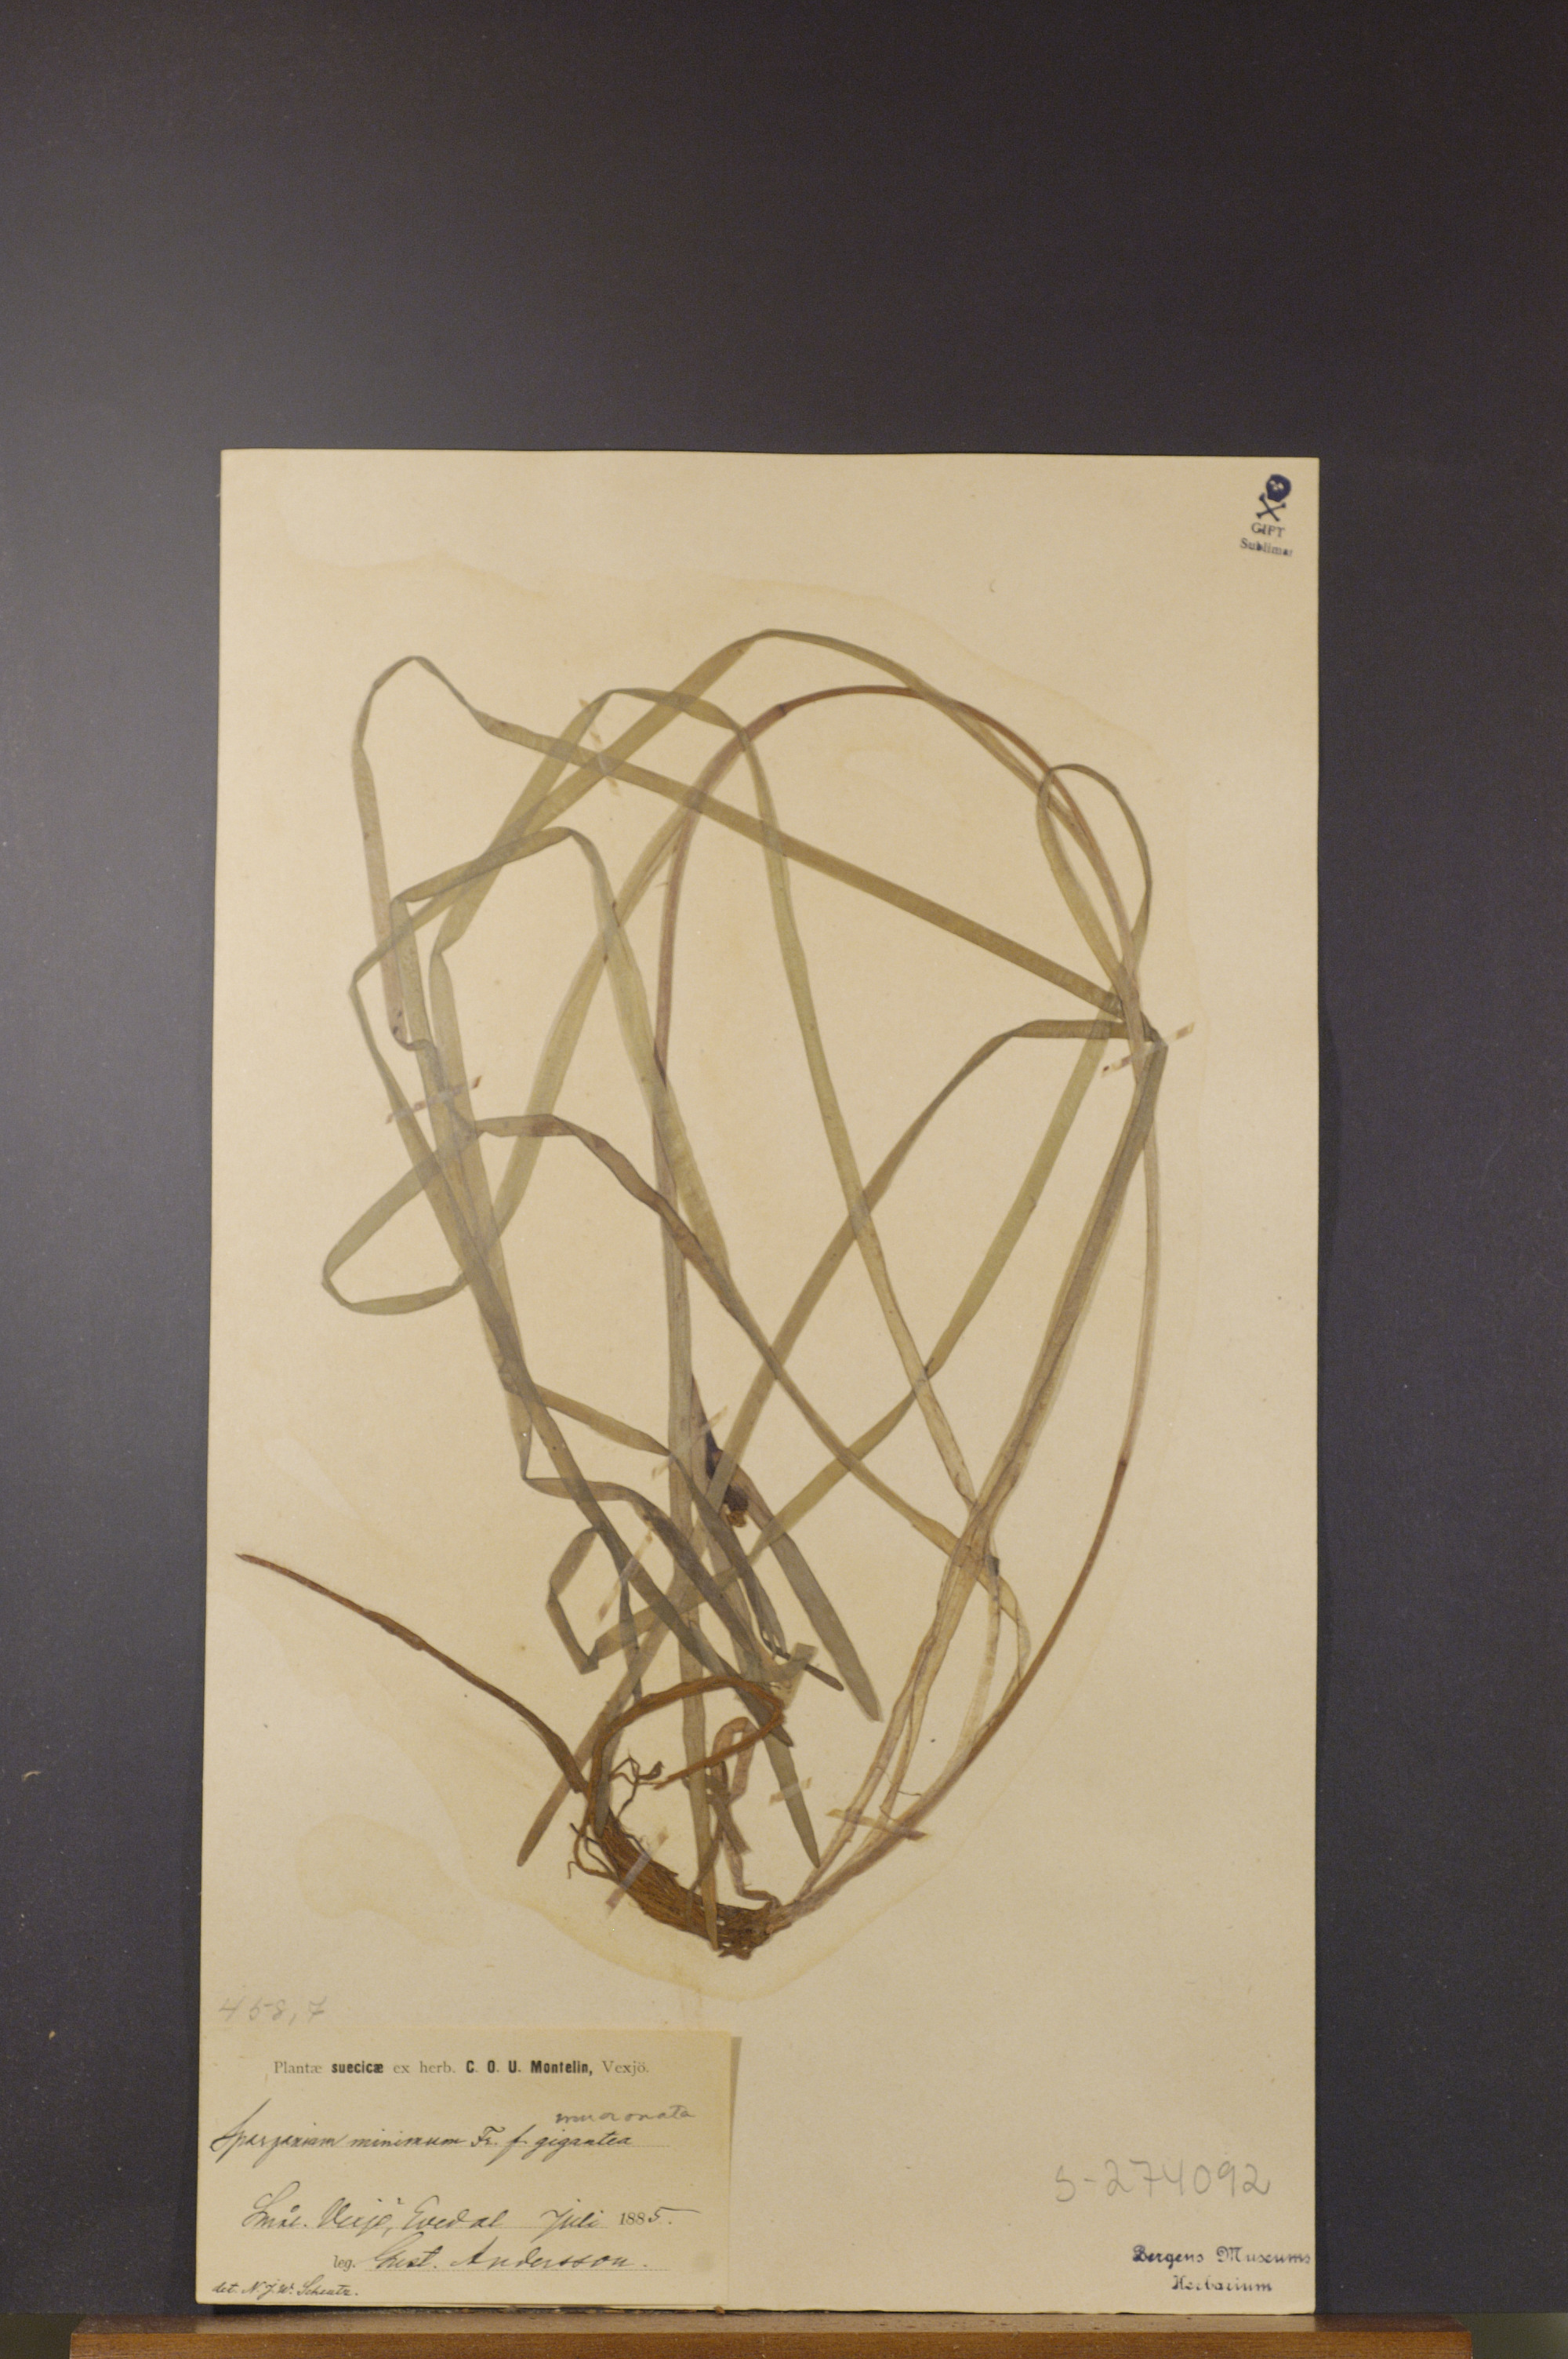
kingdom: Plantae
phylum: Tracheophyta
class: Liliopsida
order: Poales
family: Typhaceae
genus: Sparganium
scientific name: Sparganium natans
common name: Least bur-reed
